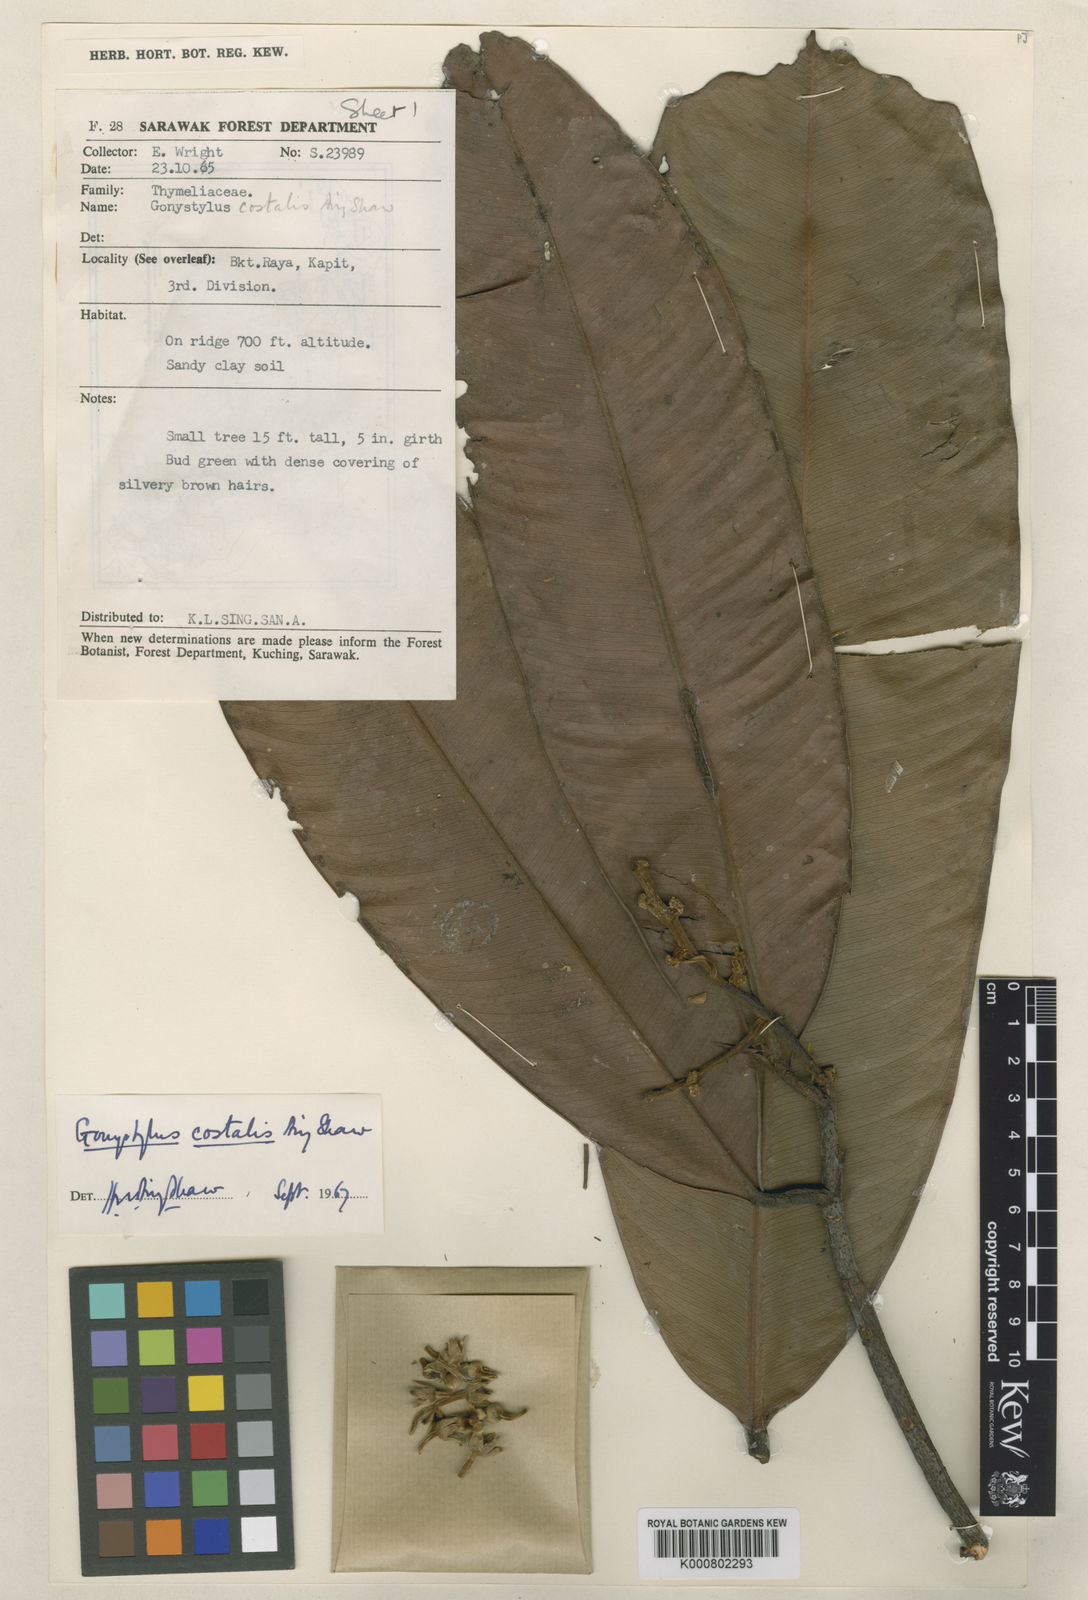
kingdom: Plantae
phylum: Tracheophyta
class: Magnoliopsida
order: Malvales
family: Thymelaeaceae
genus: Gonystylus
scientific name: Gonystylus costalis
